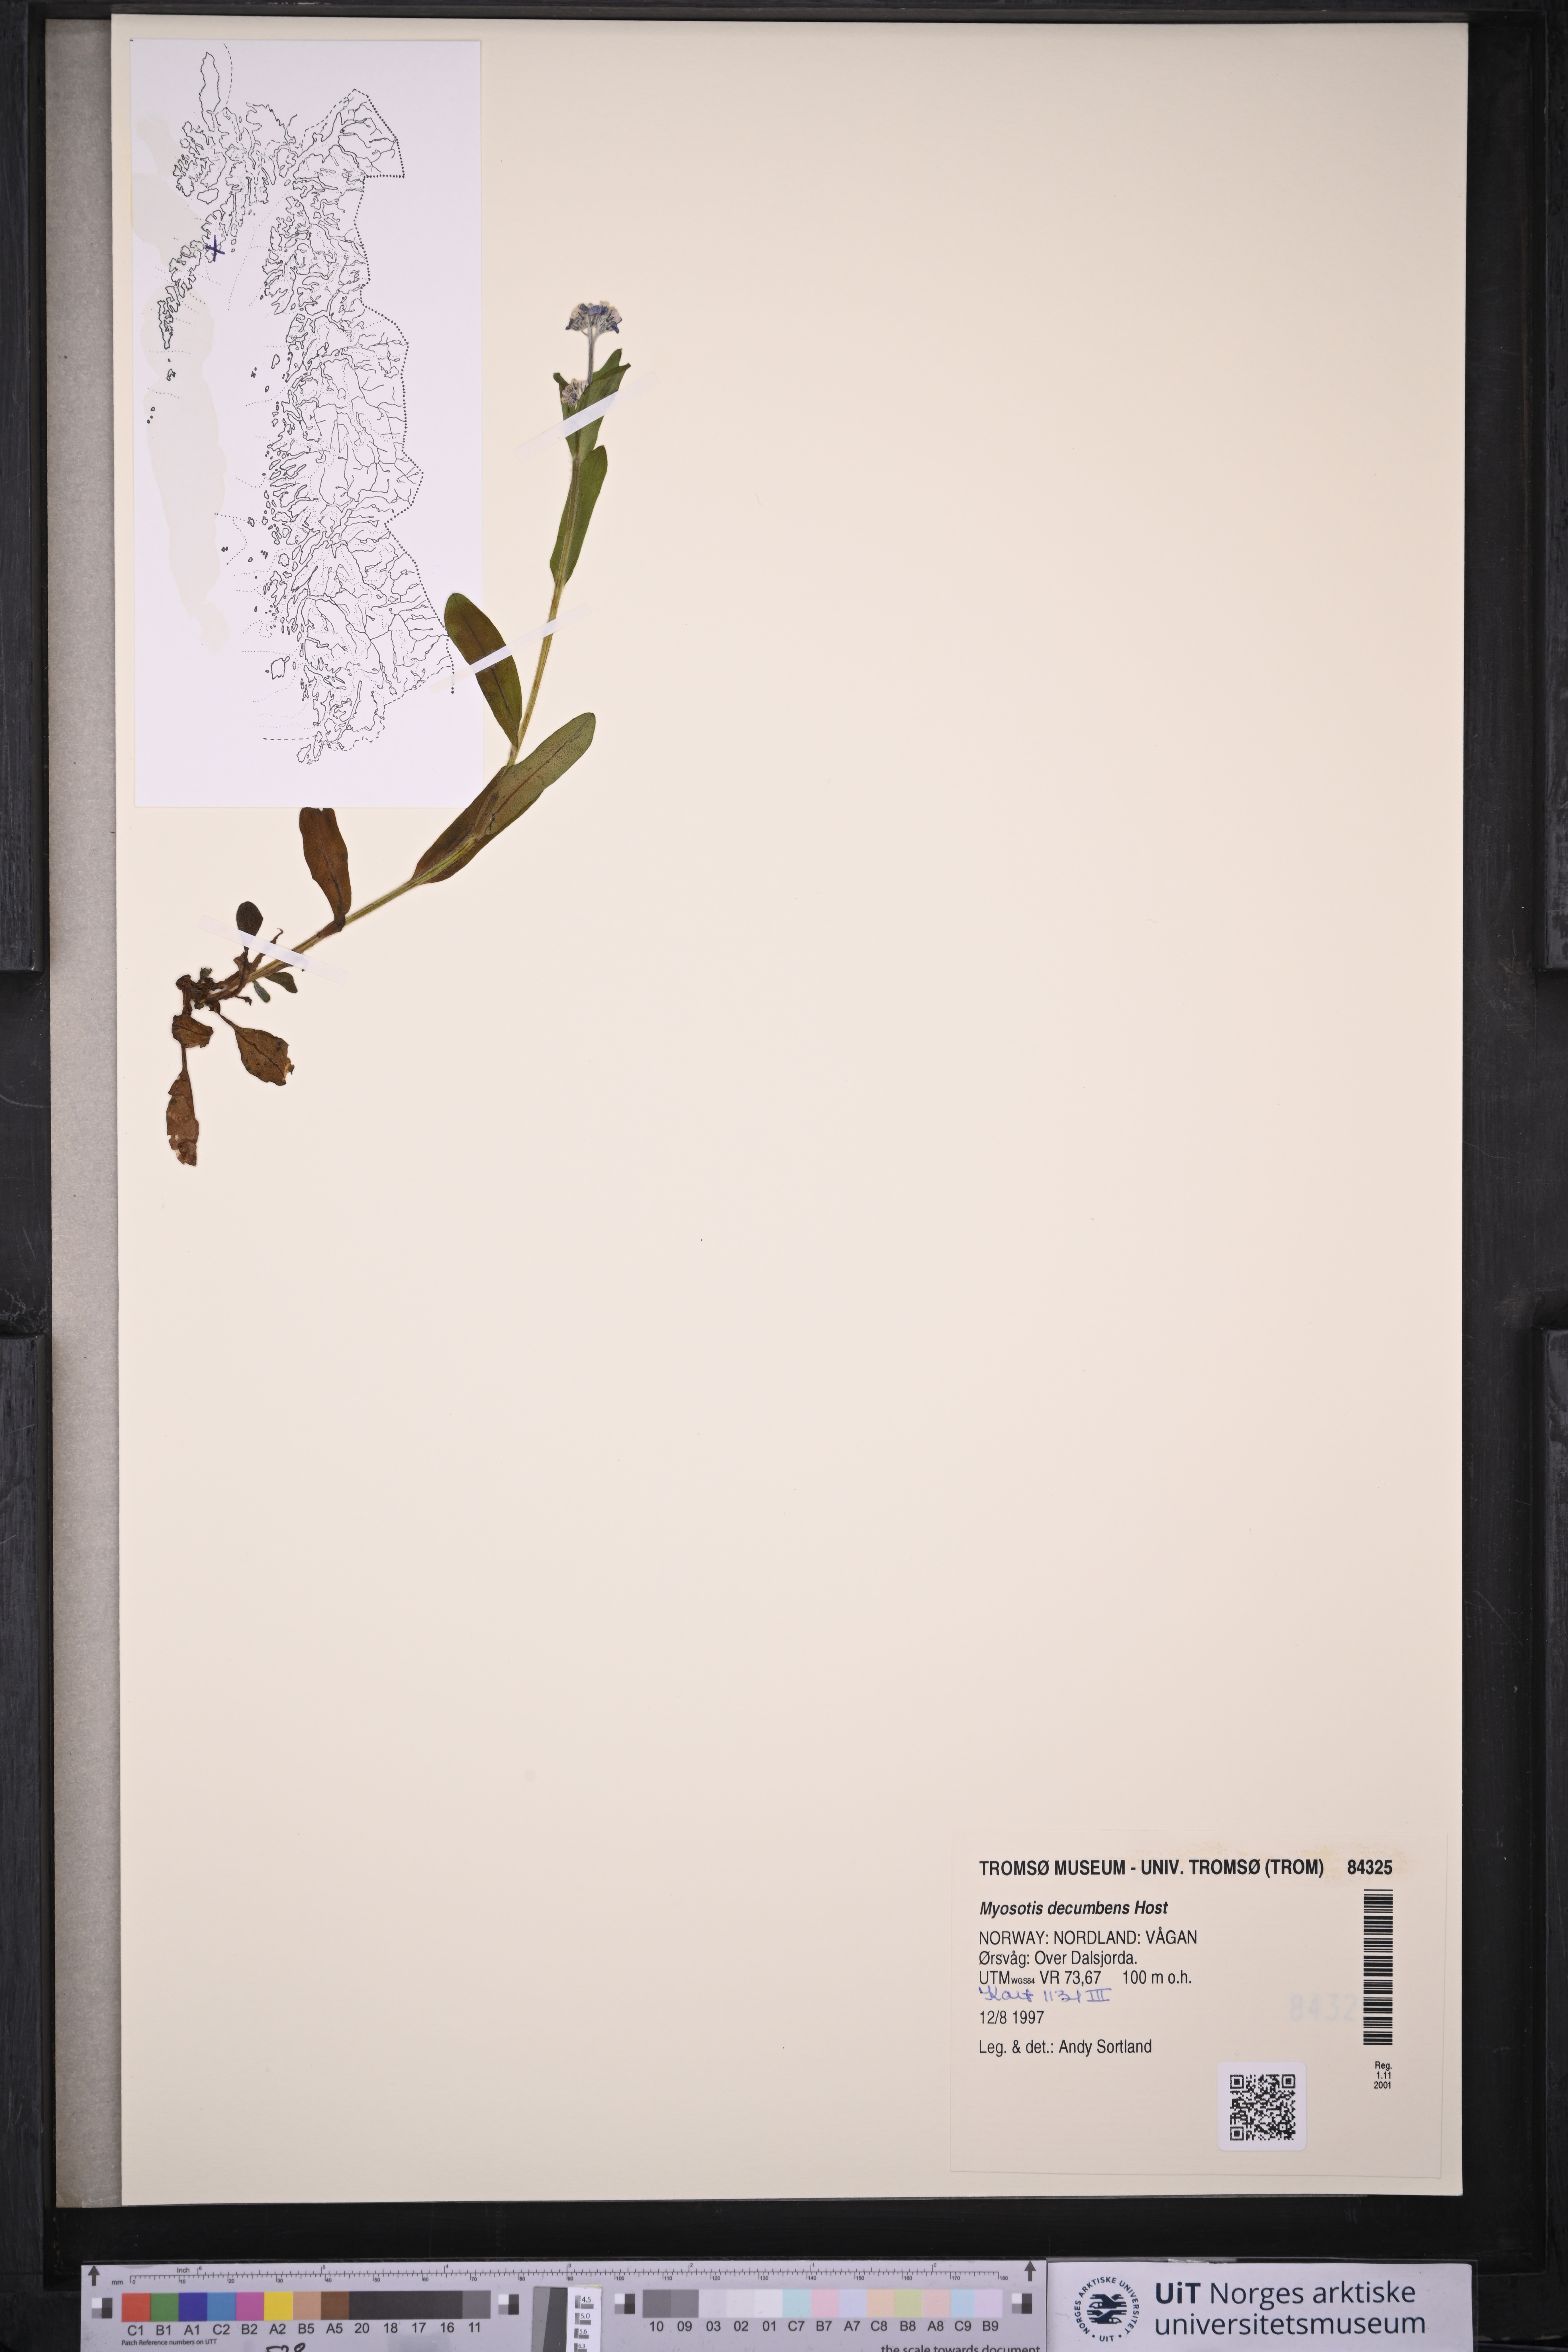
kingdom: Plantae
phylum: Tracheophyta
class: Magnoliopsida
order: Boraginales
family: Boraginaceae
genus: Myosotis
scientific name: Myosotis decumbens
